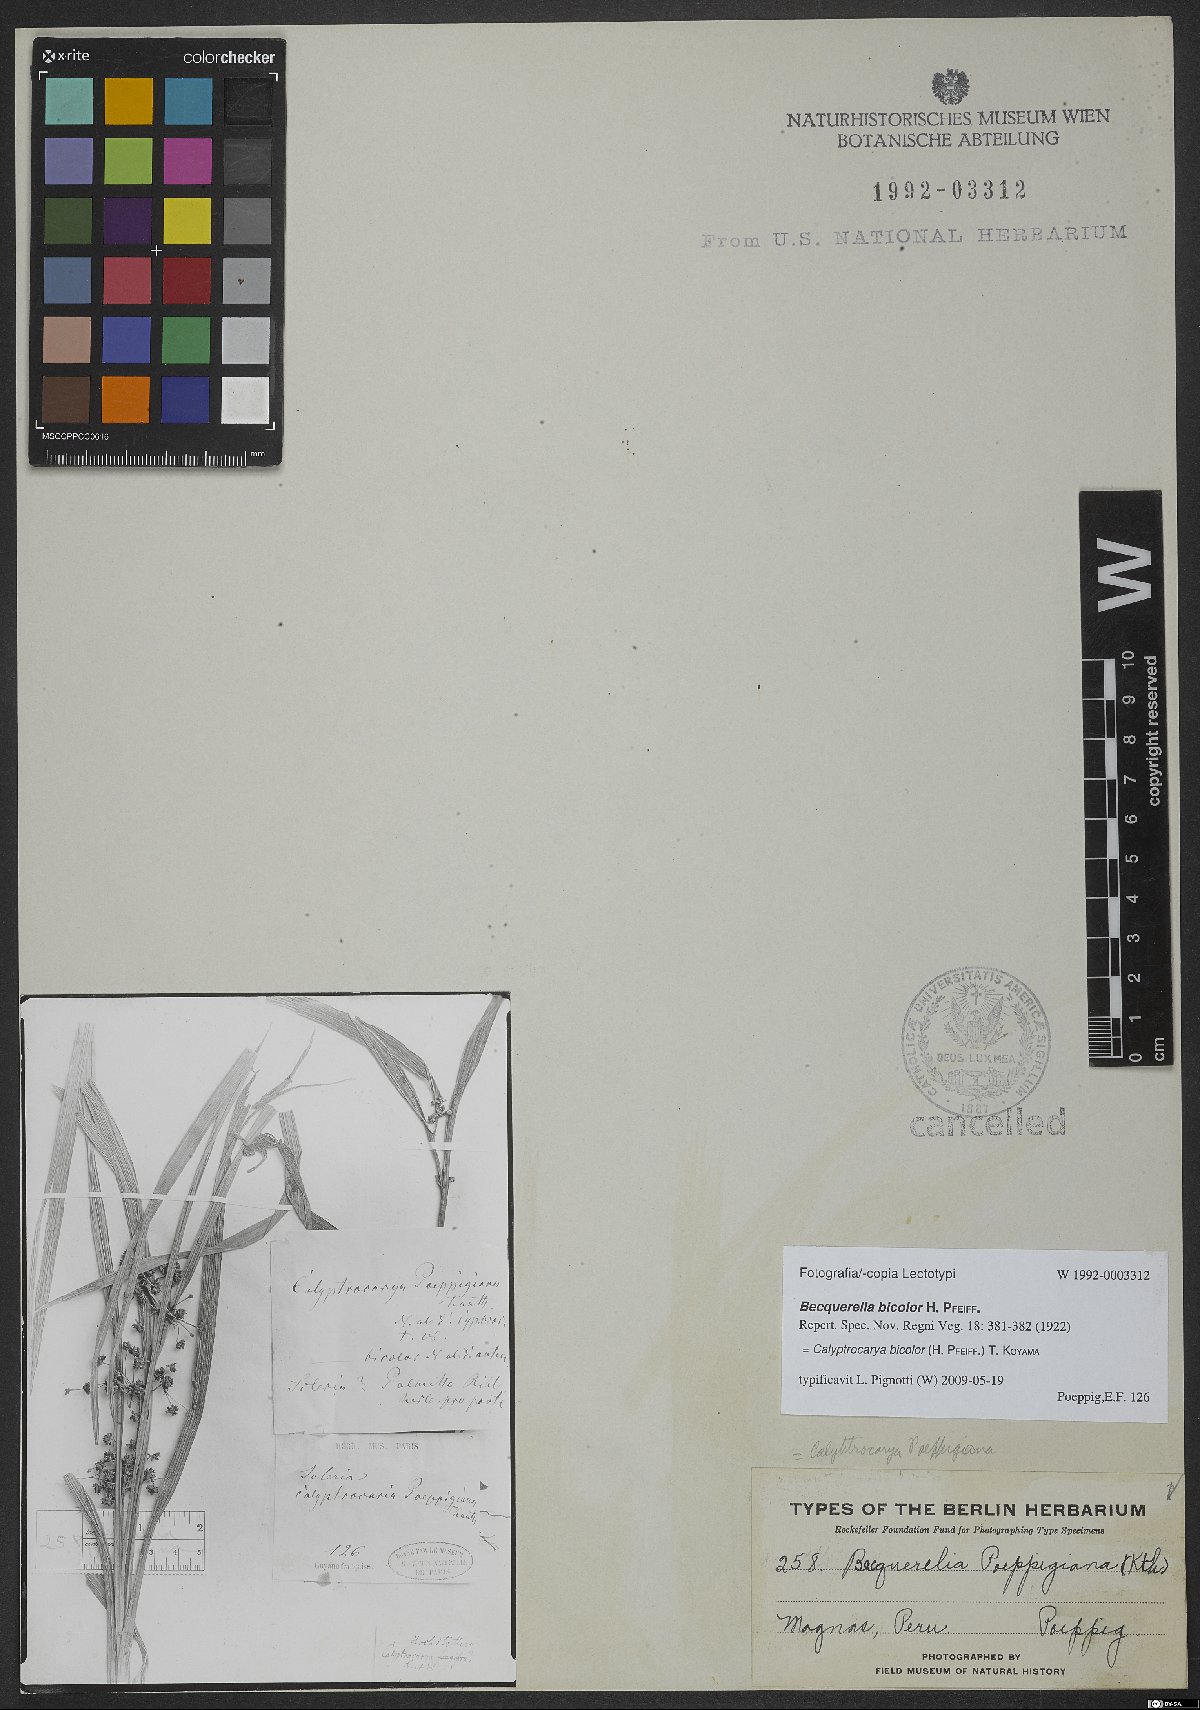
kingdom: Plantae
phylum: Tracheophyta
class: Liliopsida
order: Poales
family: Cyperaceae
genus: Calyptrocarya
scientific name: Calyptrocarya bicolor
